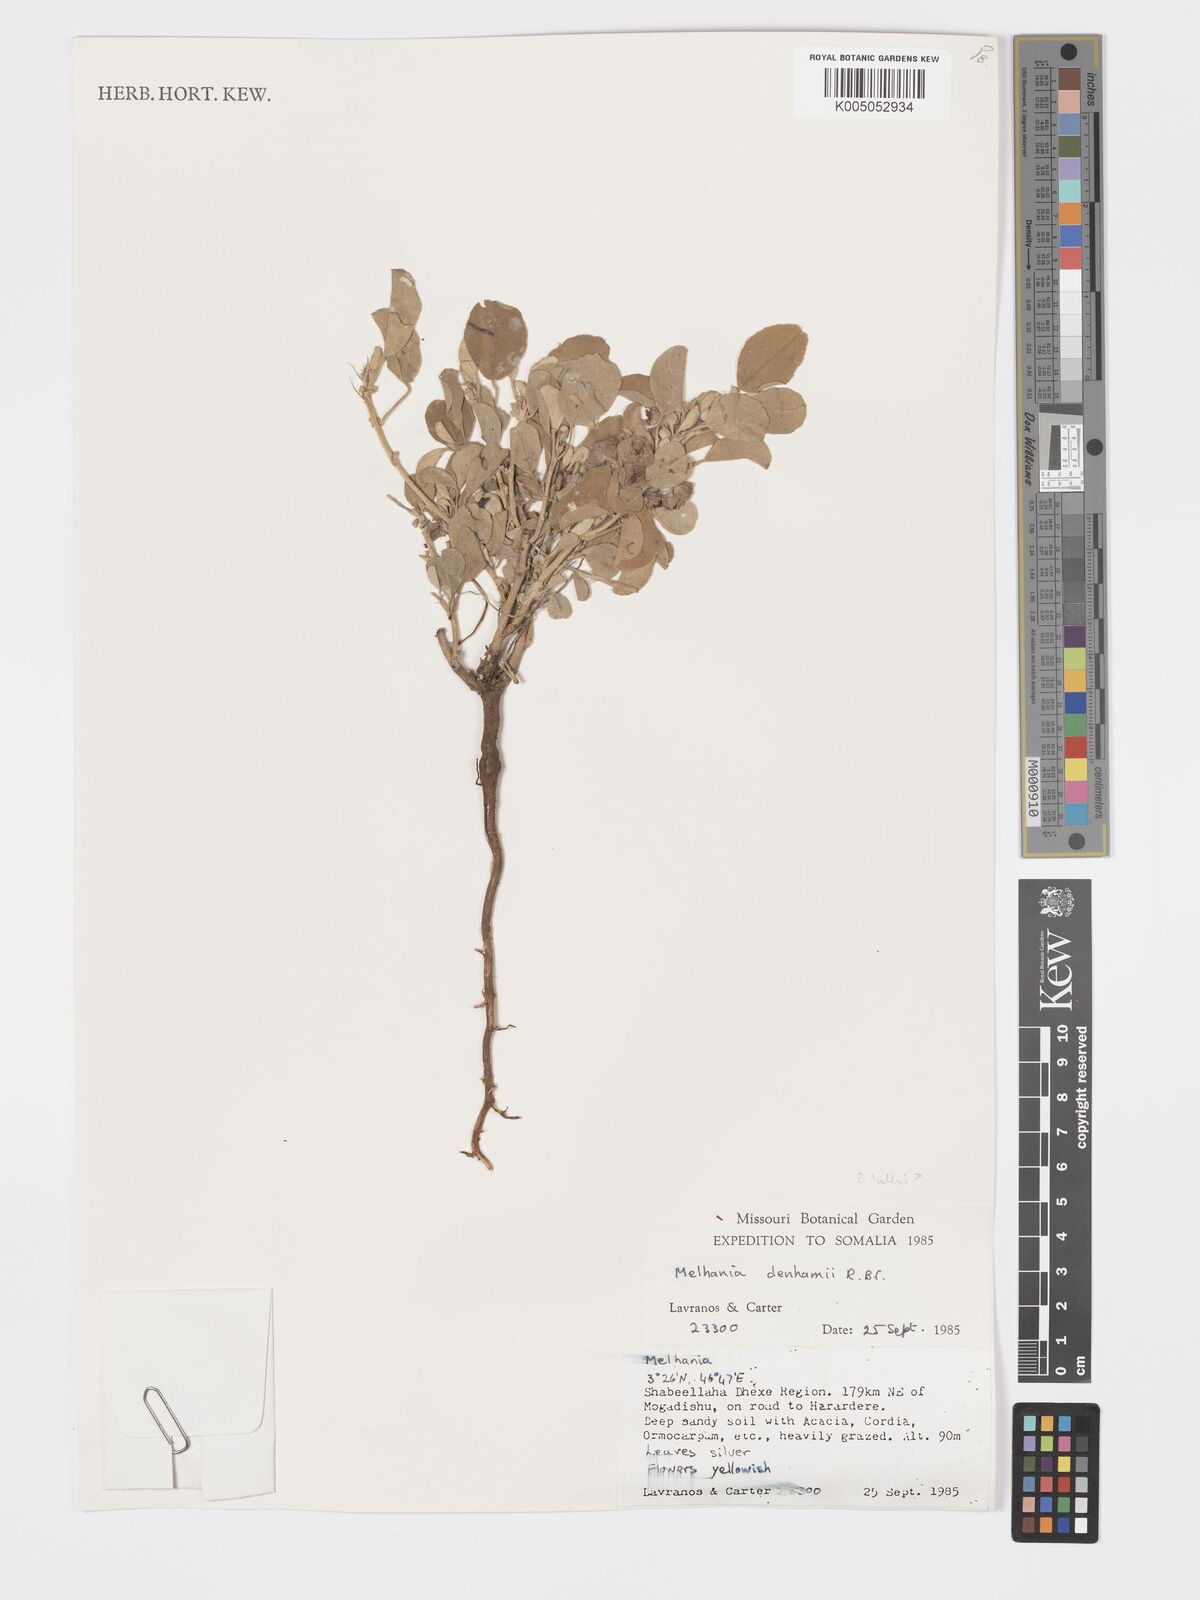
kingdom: Plantae
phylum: Tracheophyta
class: Magnoliopsida
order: Malvales
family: Malvaceae
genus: Melhania
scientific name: Melhania kelleri
